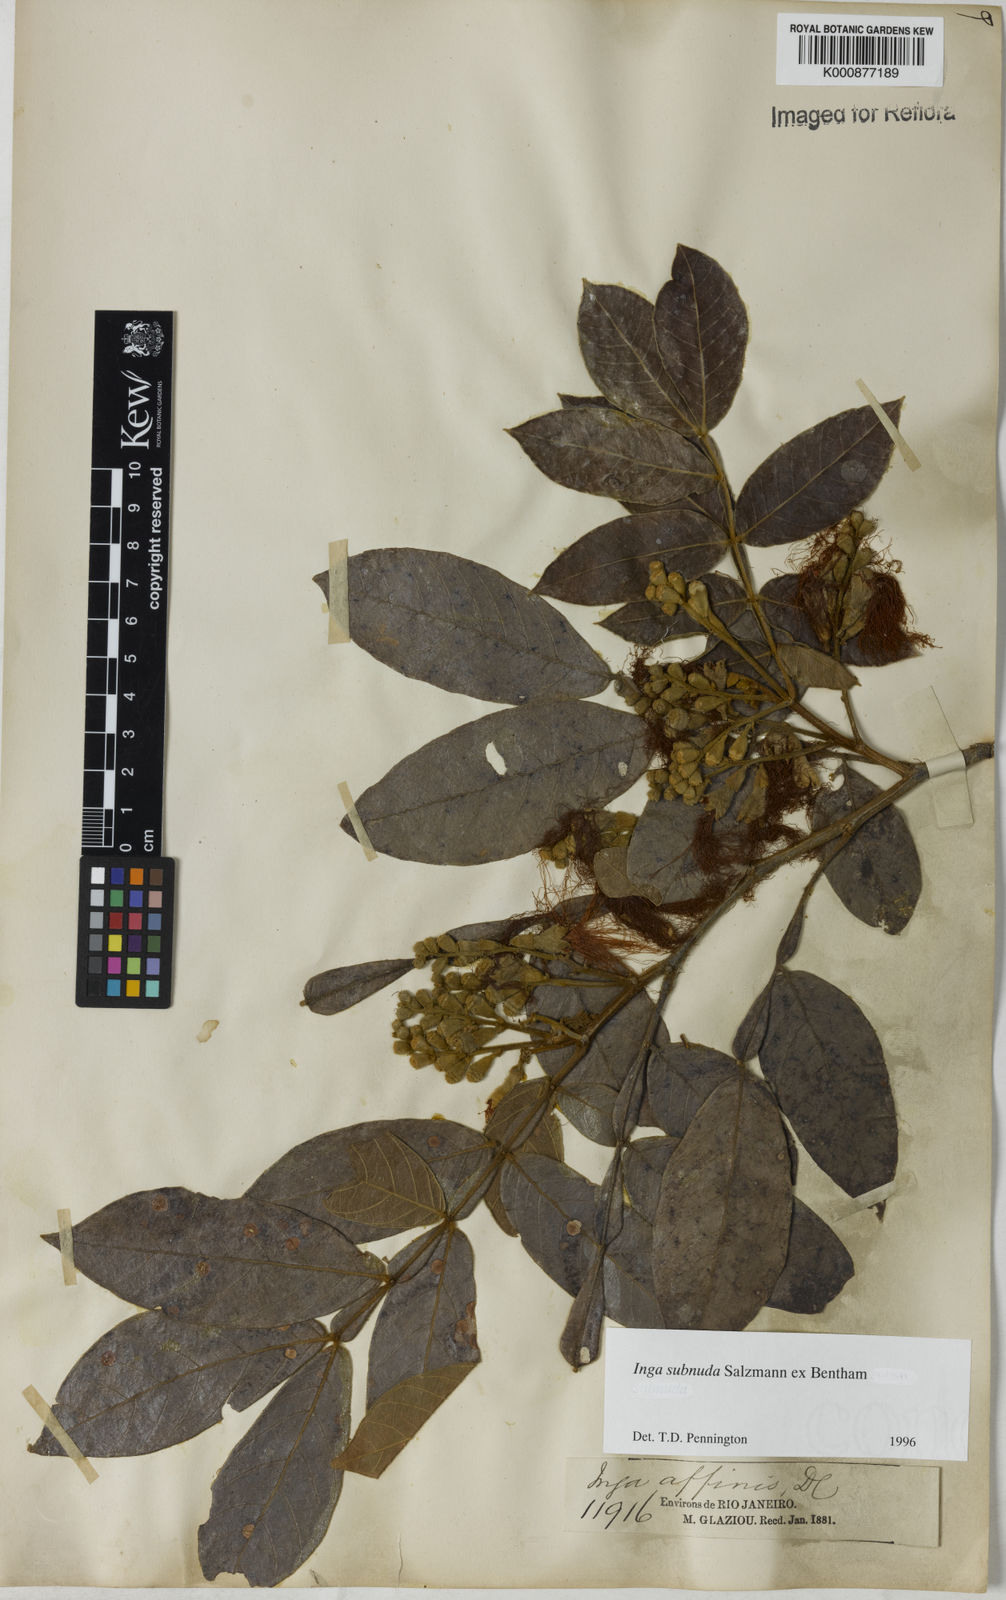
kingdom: Plantae
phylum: Tracheophyta
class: Magnoliopsida
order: Fabales
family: Fabaceae
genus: Inga
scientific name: Inga subnuda
